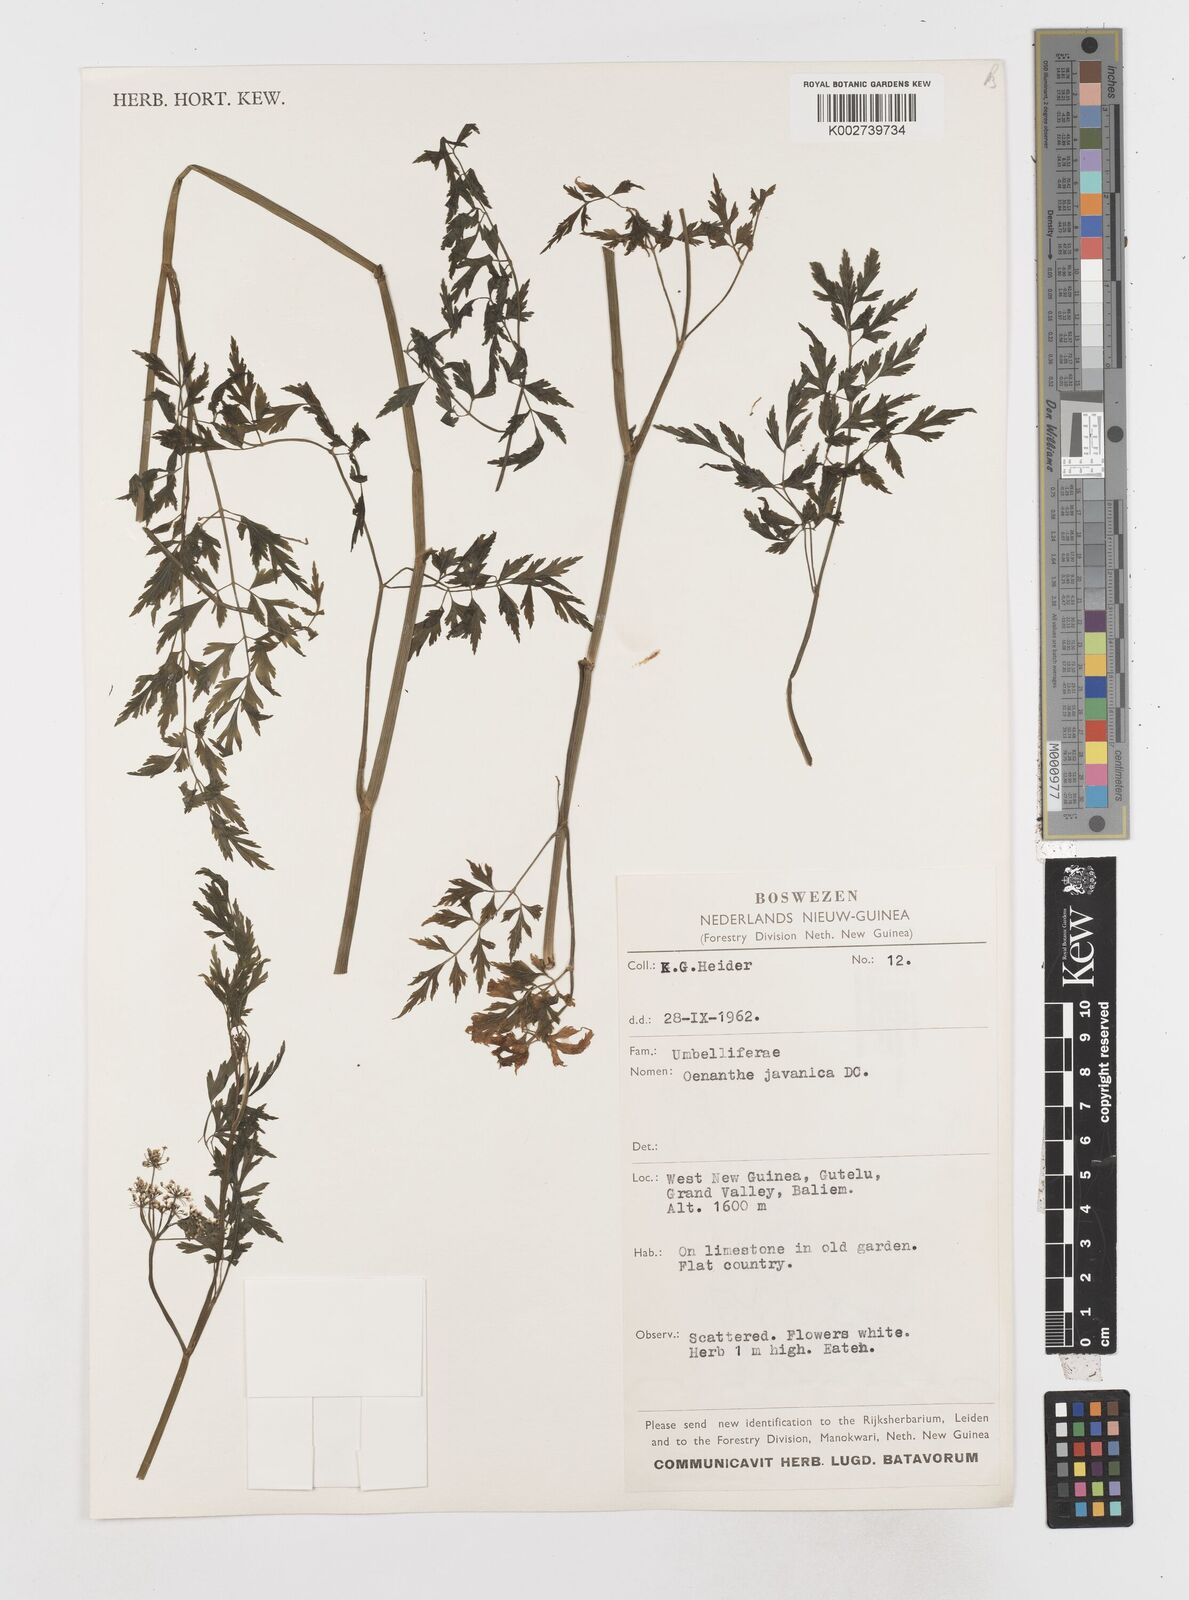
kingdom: Plantae
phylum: Tracheophyta
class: Magnoliopsida
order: Apiales
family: Apiaceae
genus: Oenanthe
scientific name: Oenanthe javanica
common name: Java water-dropwort
